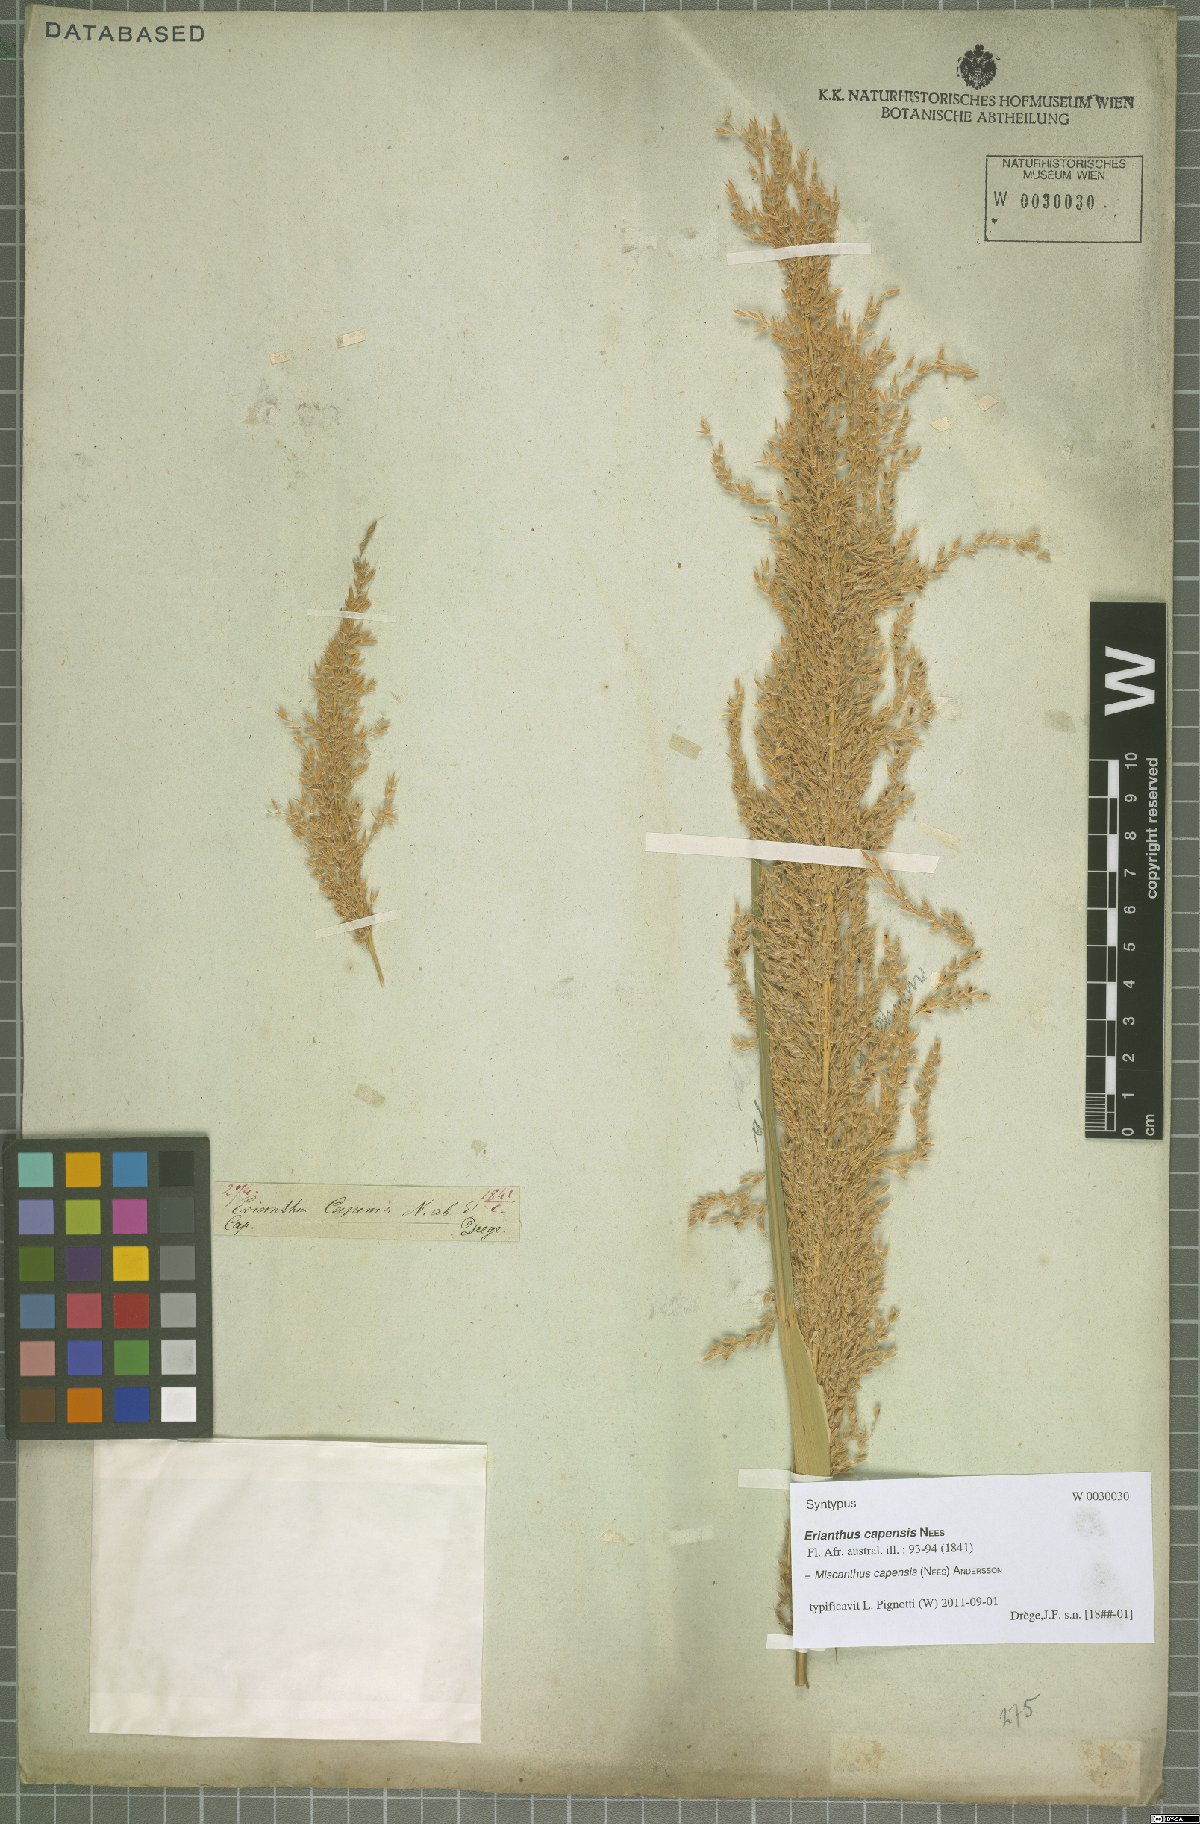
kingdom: Plantae
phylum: Tracheophyta
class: Liliopsida
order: Poales
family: Poaceae
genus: Miscanthus
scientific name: Miscanthus ecklonii
